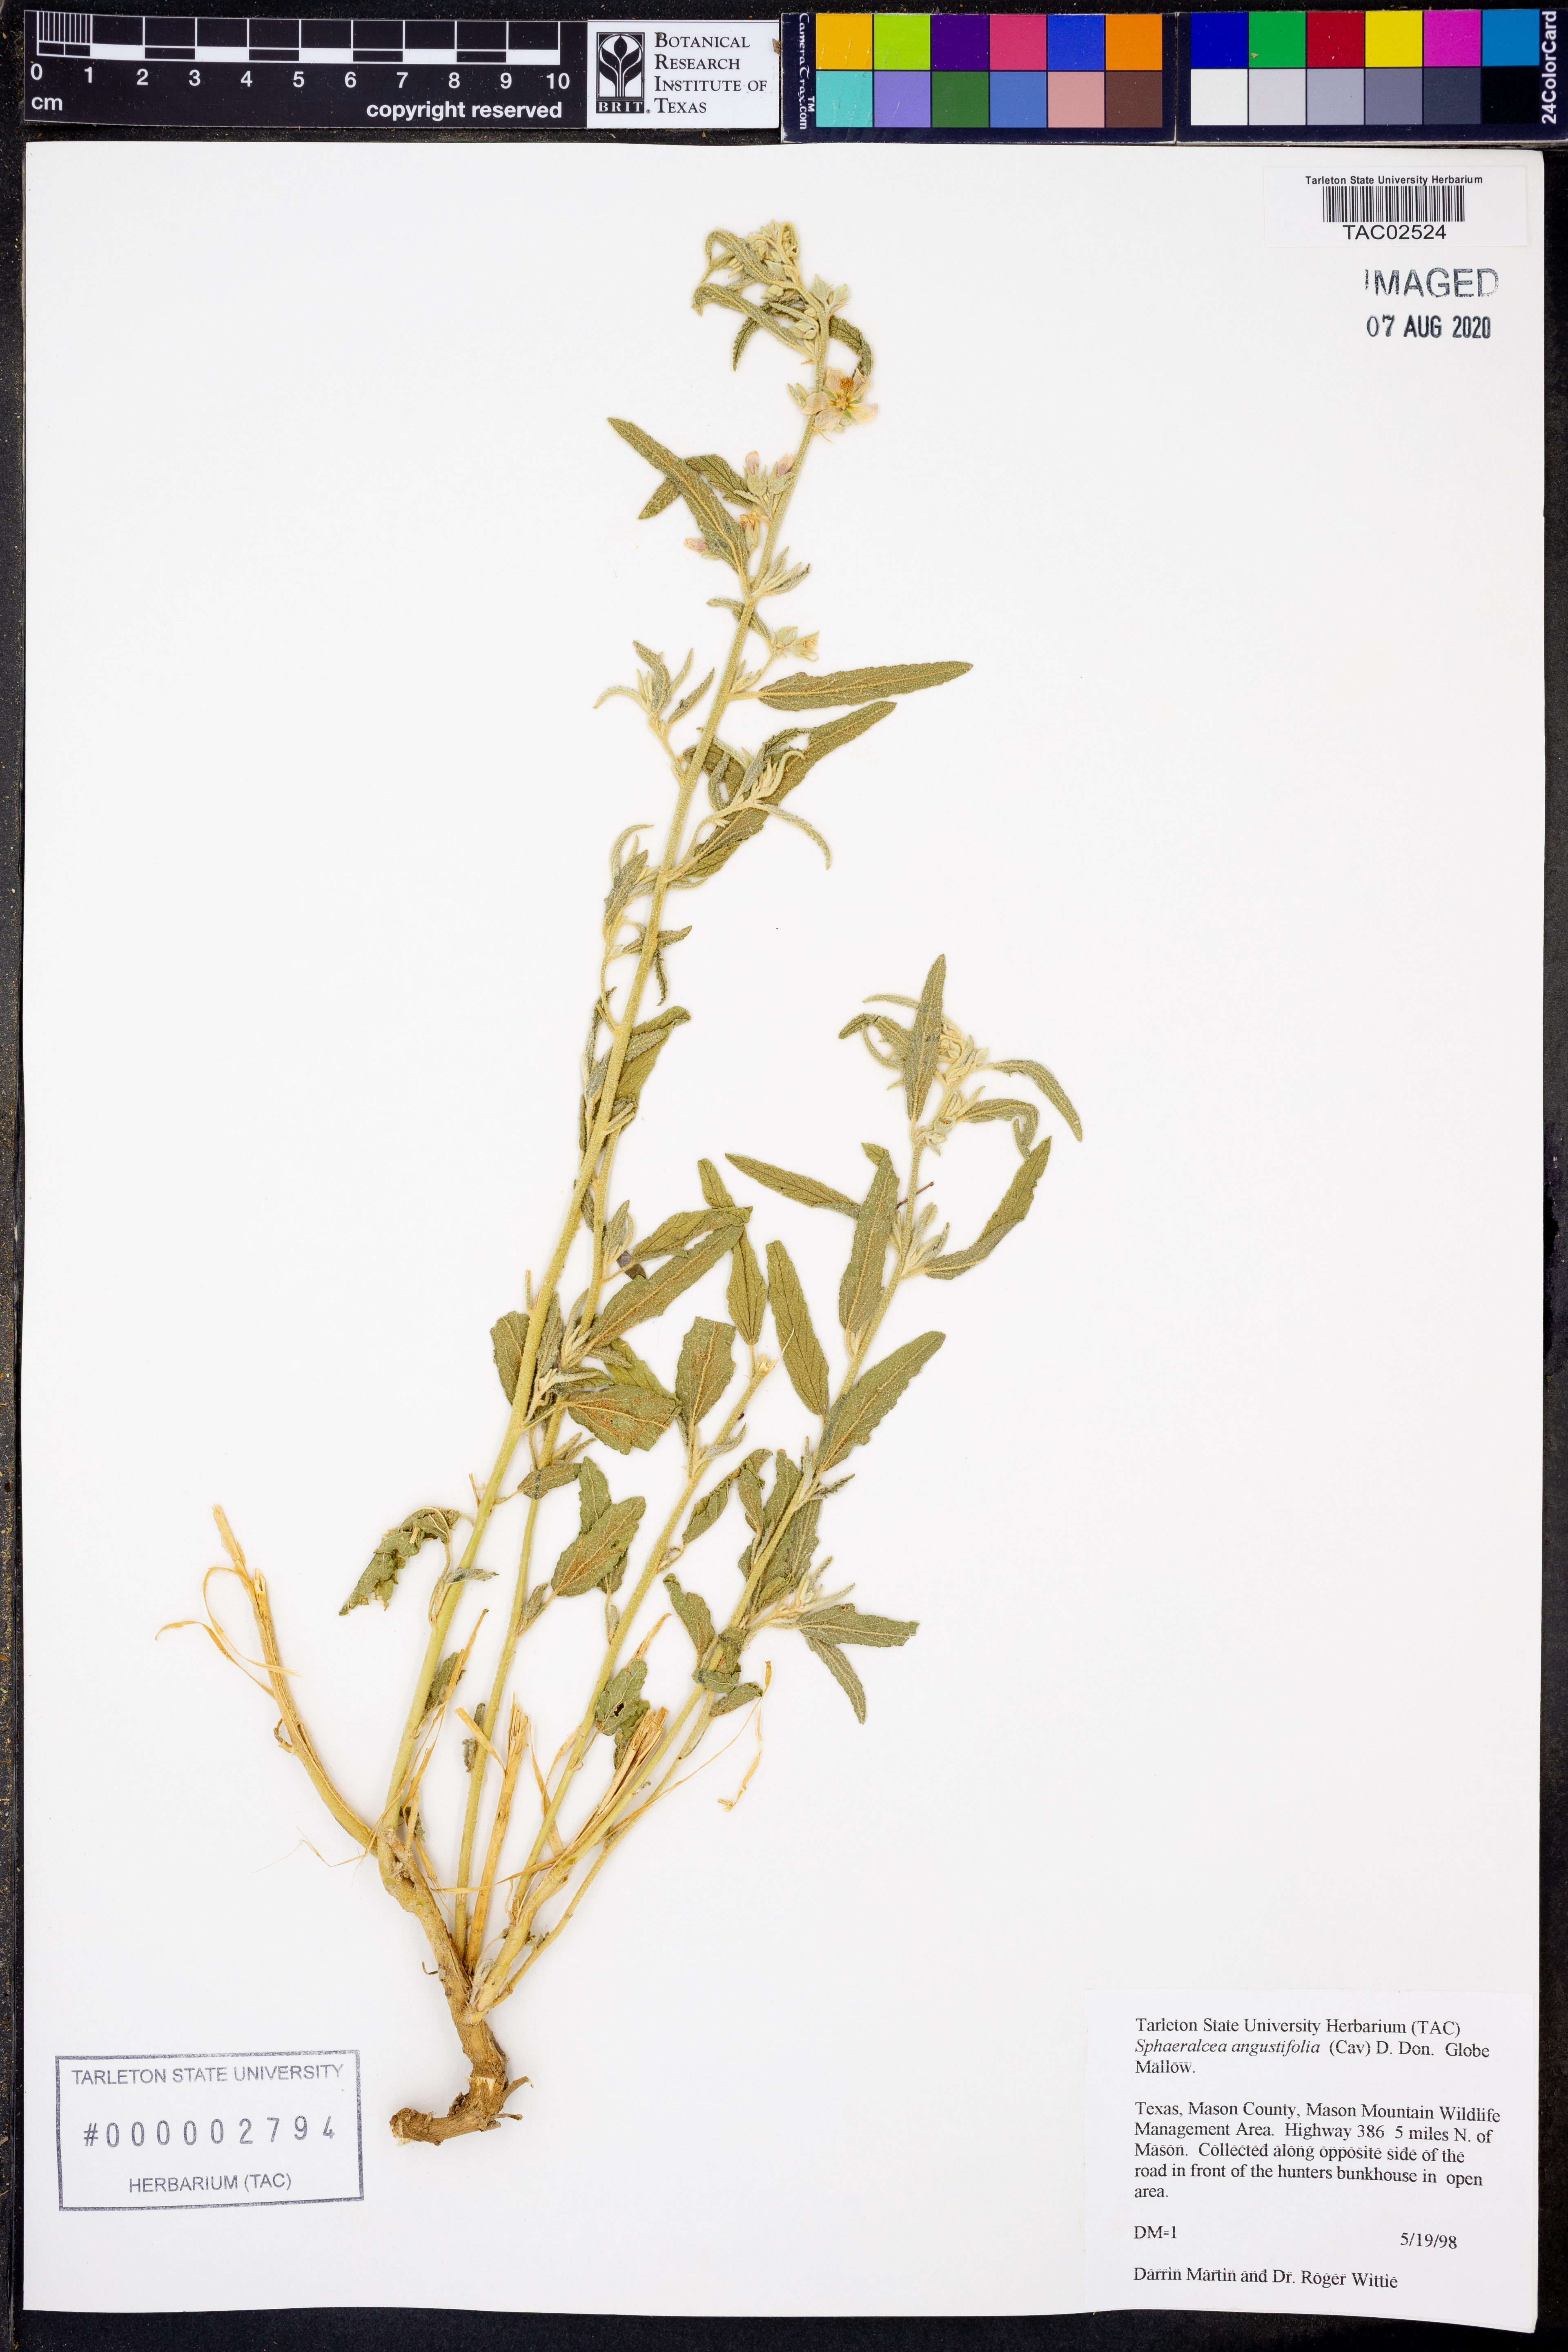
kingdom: Plantae
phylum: Tracheophyta
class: Magnoliopsida
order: Malvales
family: Malvaceae
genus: Sphaeralcea
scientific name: Sphaeralcea angustifolia
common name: Copper globe-mallow
